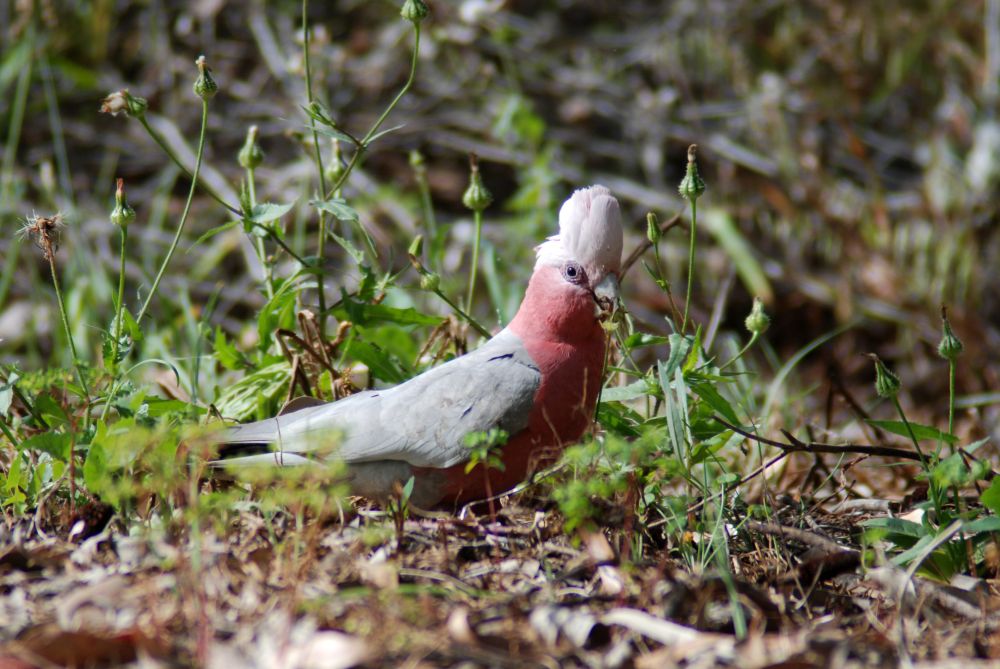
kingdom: Animalia
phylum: Chordata
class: Aves
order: Psittaciformes
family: Psittacidae
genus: Eolophus
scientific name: Eolophus roseicapilla
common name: Galah
